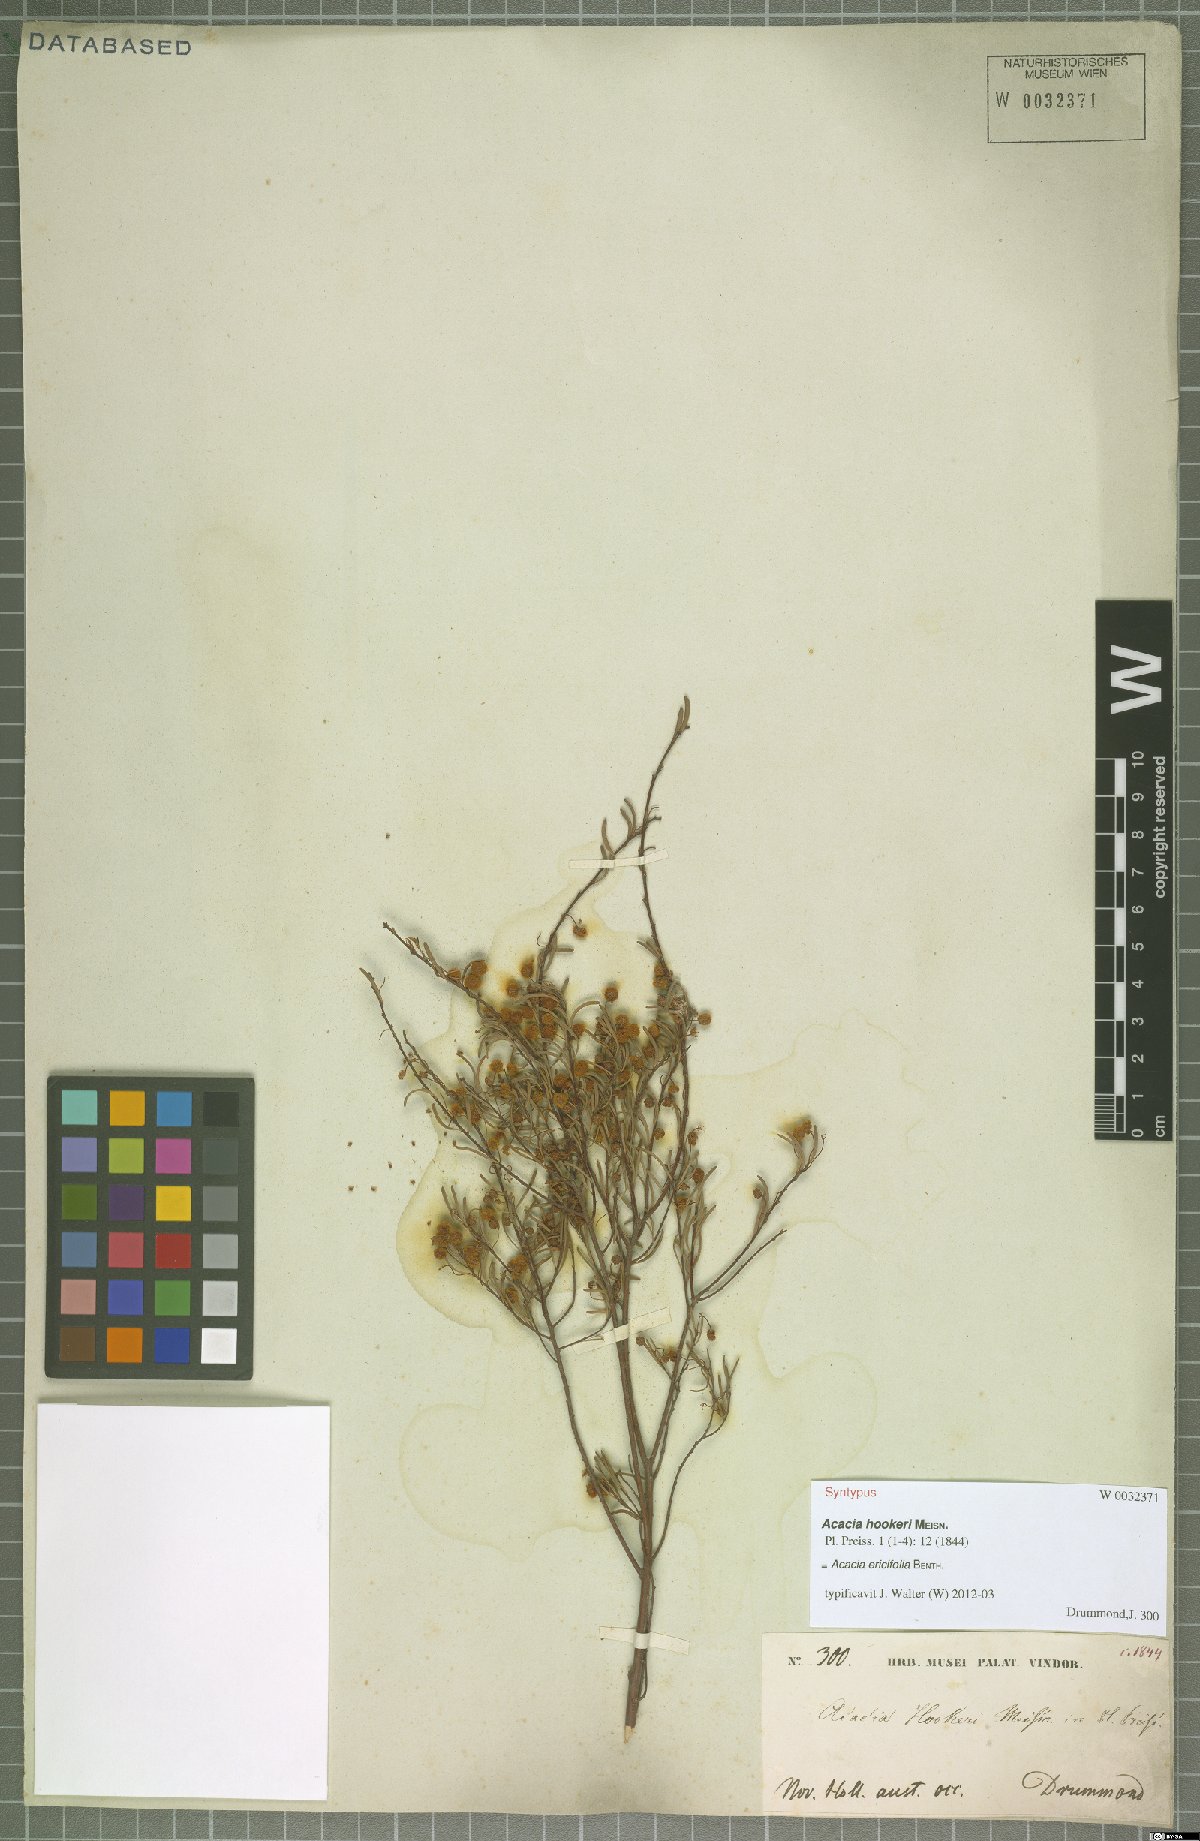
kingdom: Plantae
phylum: Tracheophyta
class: Magnoliopsida
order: Fabales
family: Fabaceae
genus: Acacia
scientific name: Acacia ericifolia
